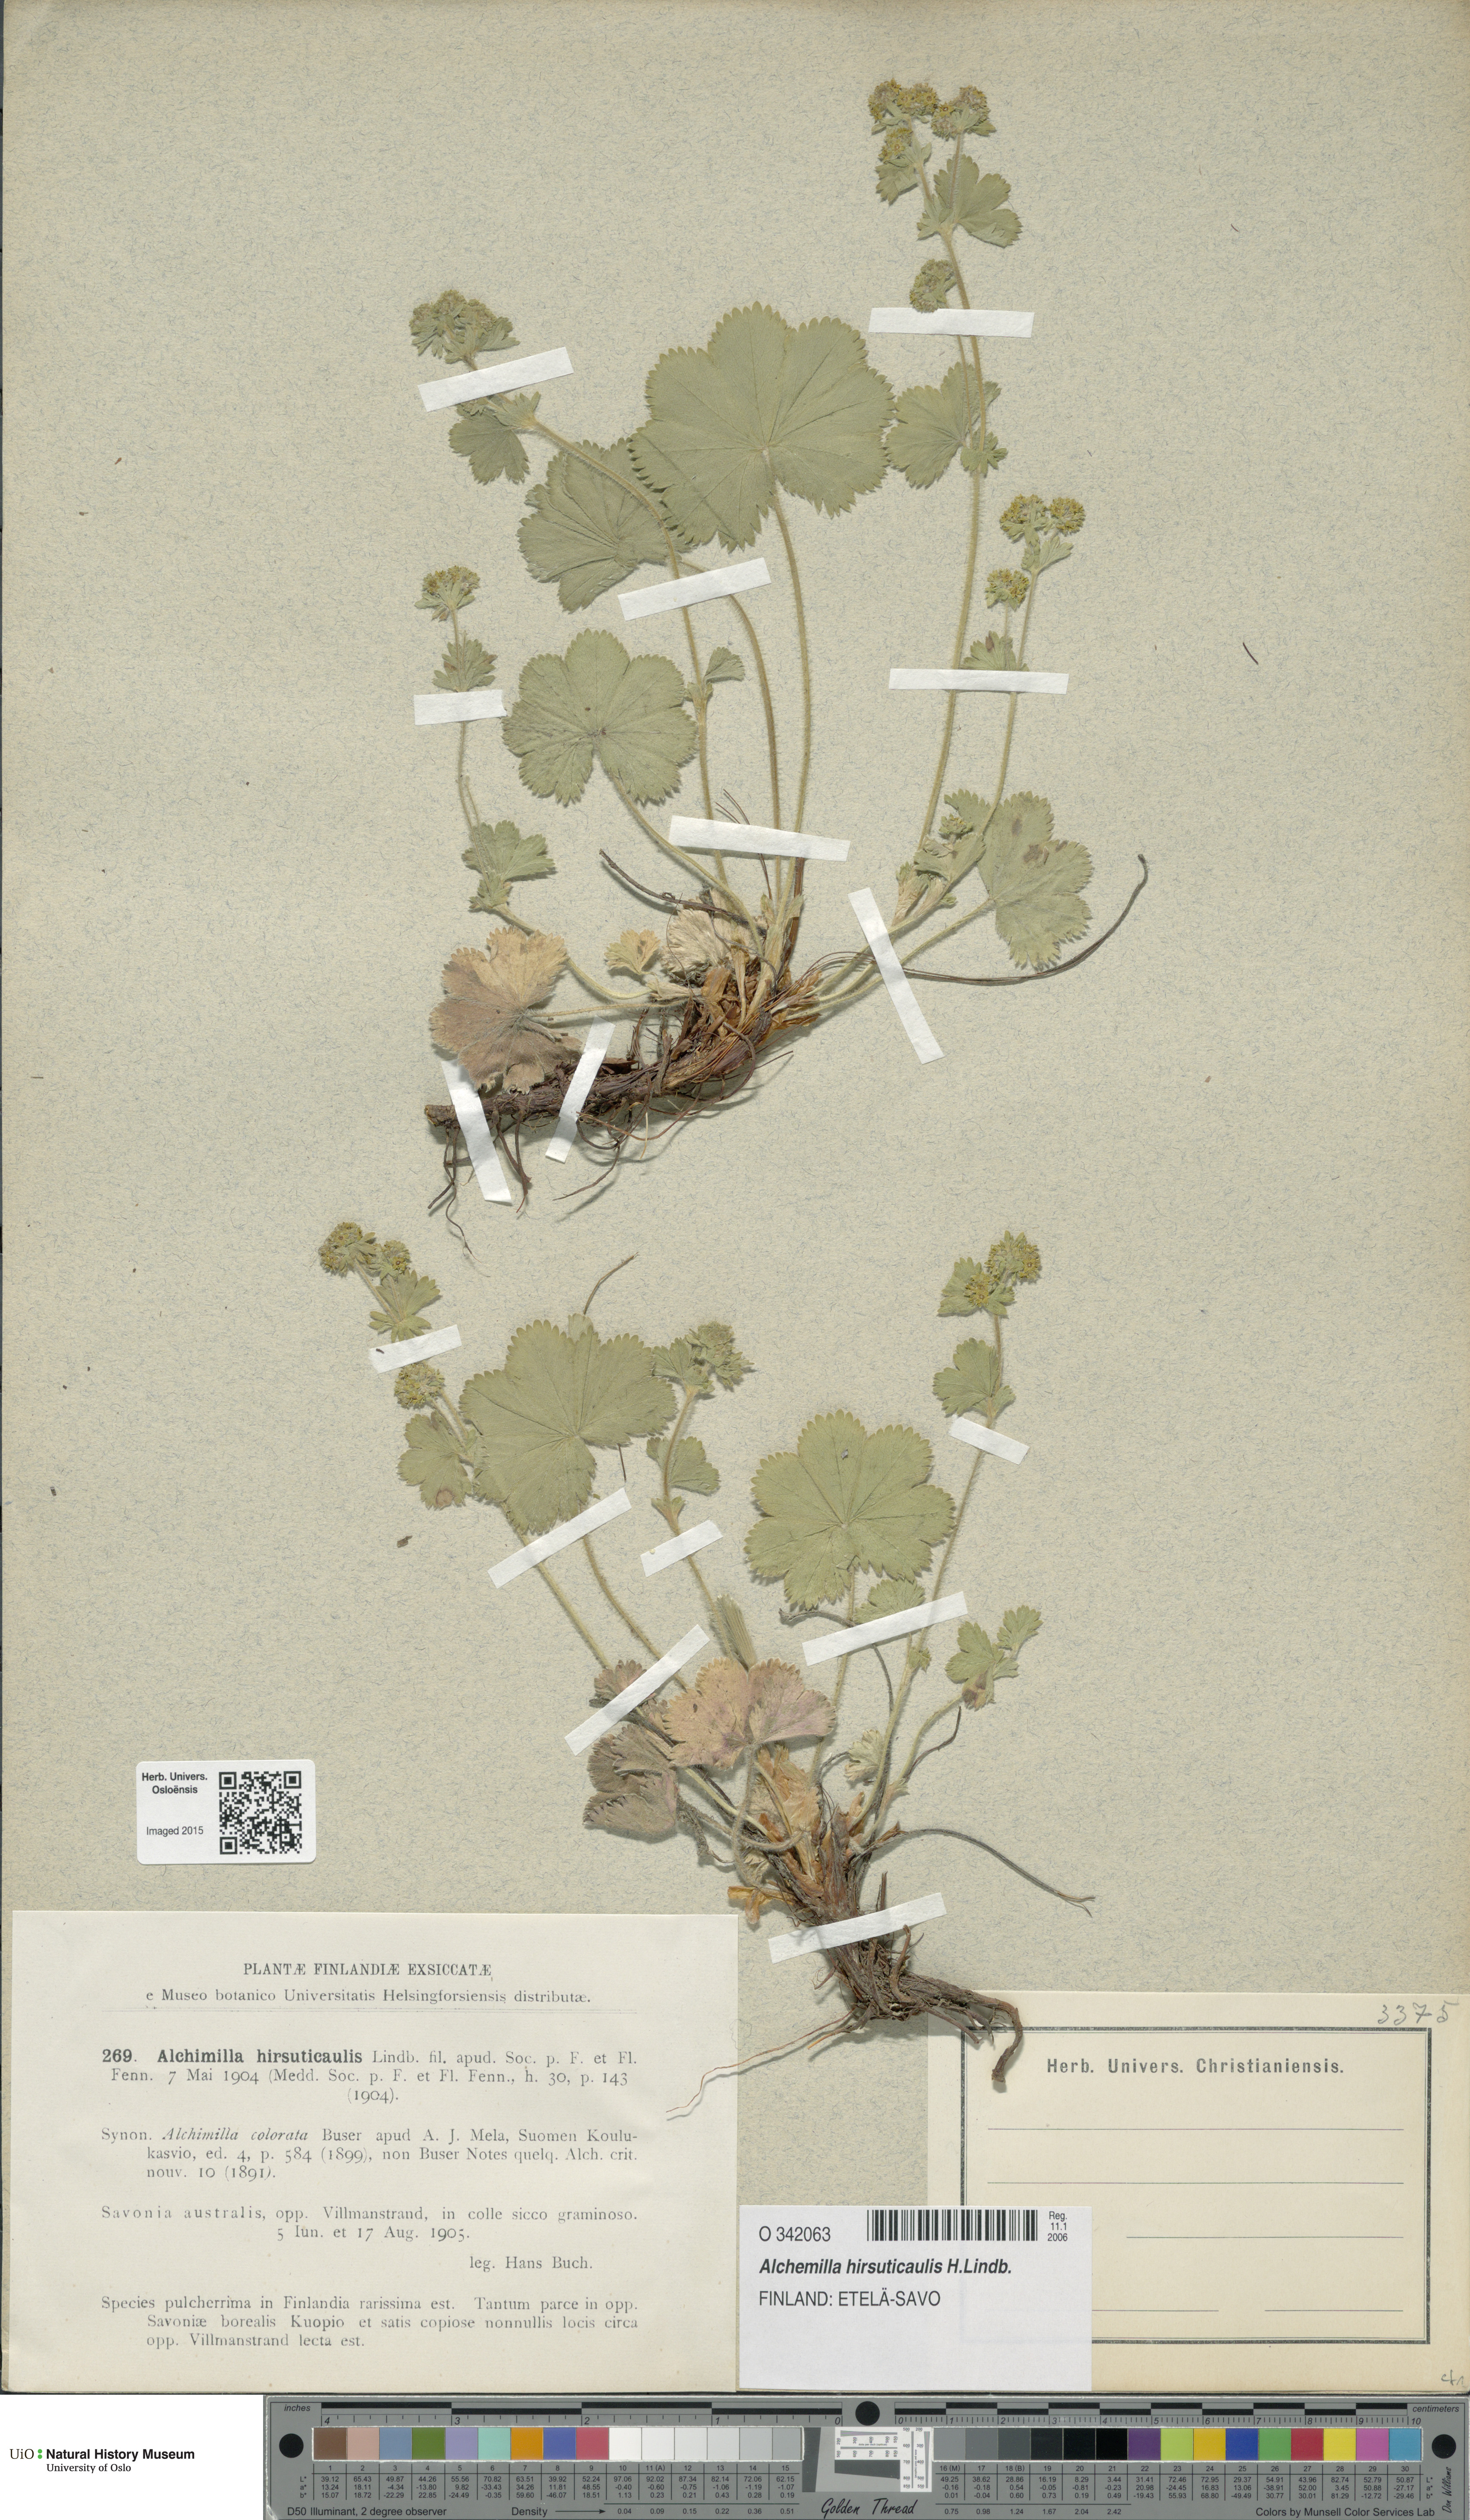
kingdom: Plantae
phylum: Tracheophyta
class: Magnoliopsida
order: Rosales
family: Rosaceae
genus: Alchemilla
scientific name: Alchemilla hirsuticaulis
